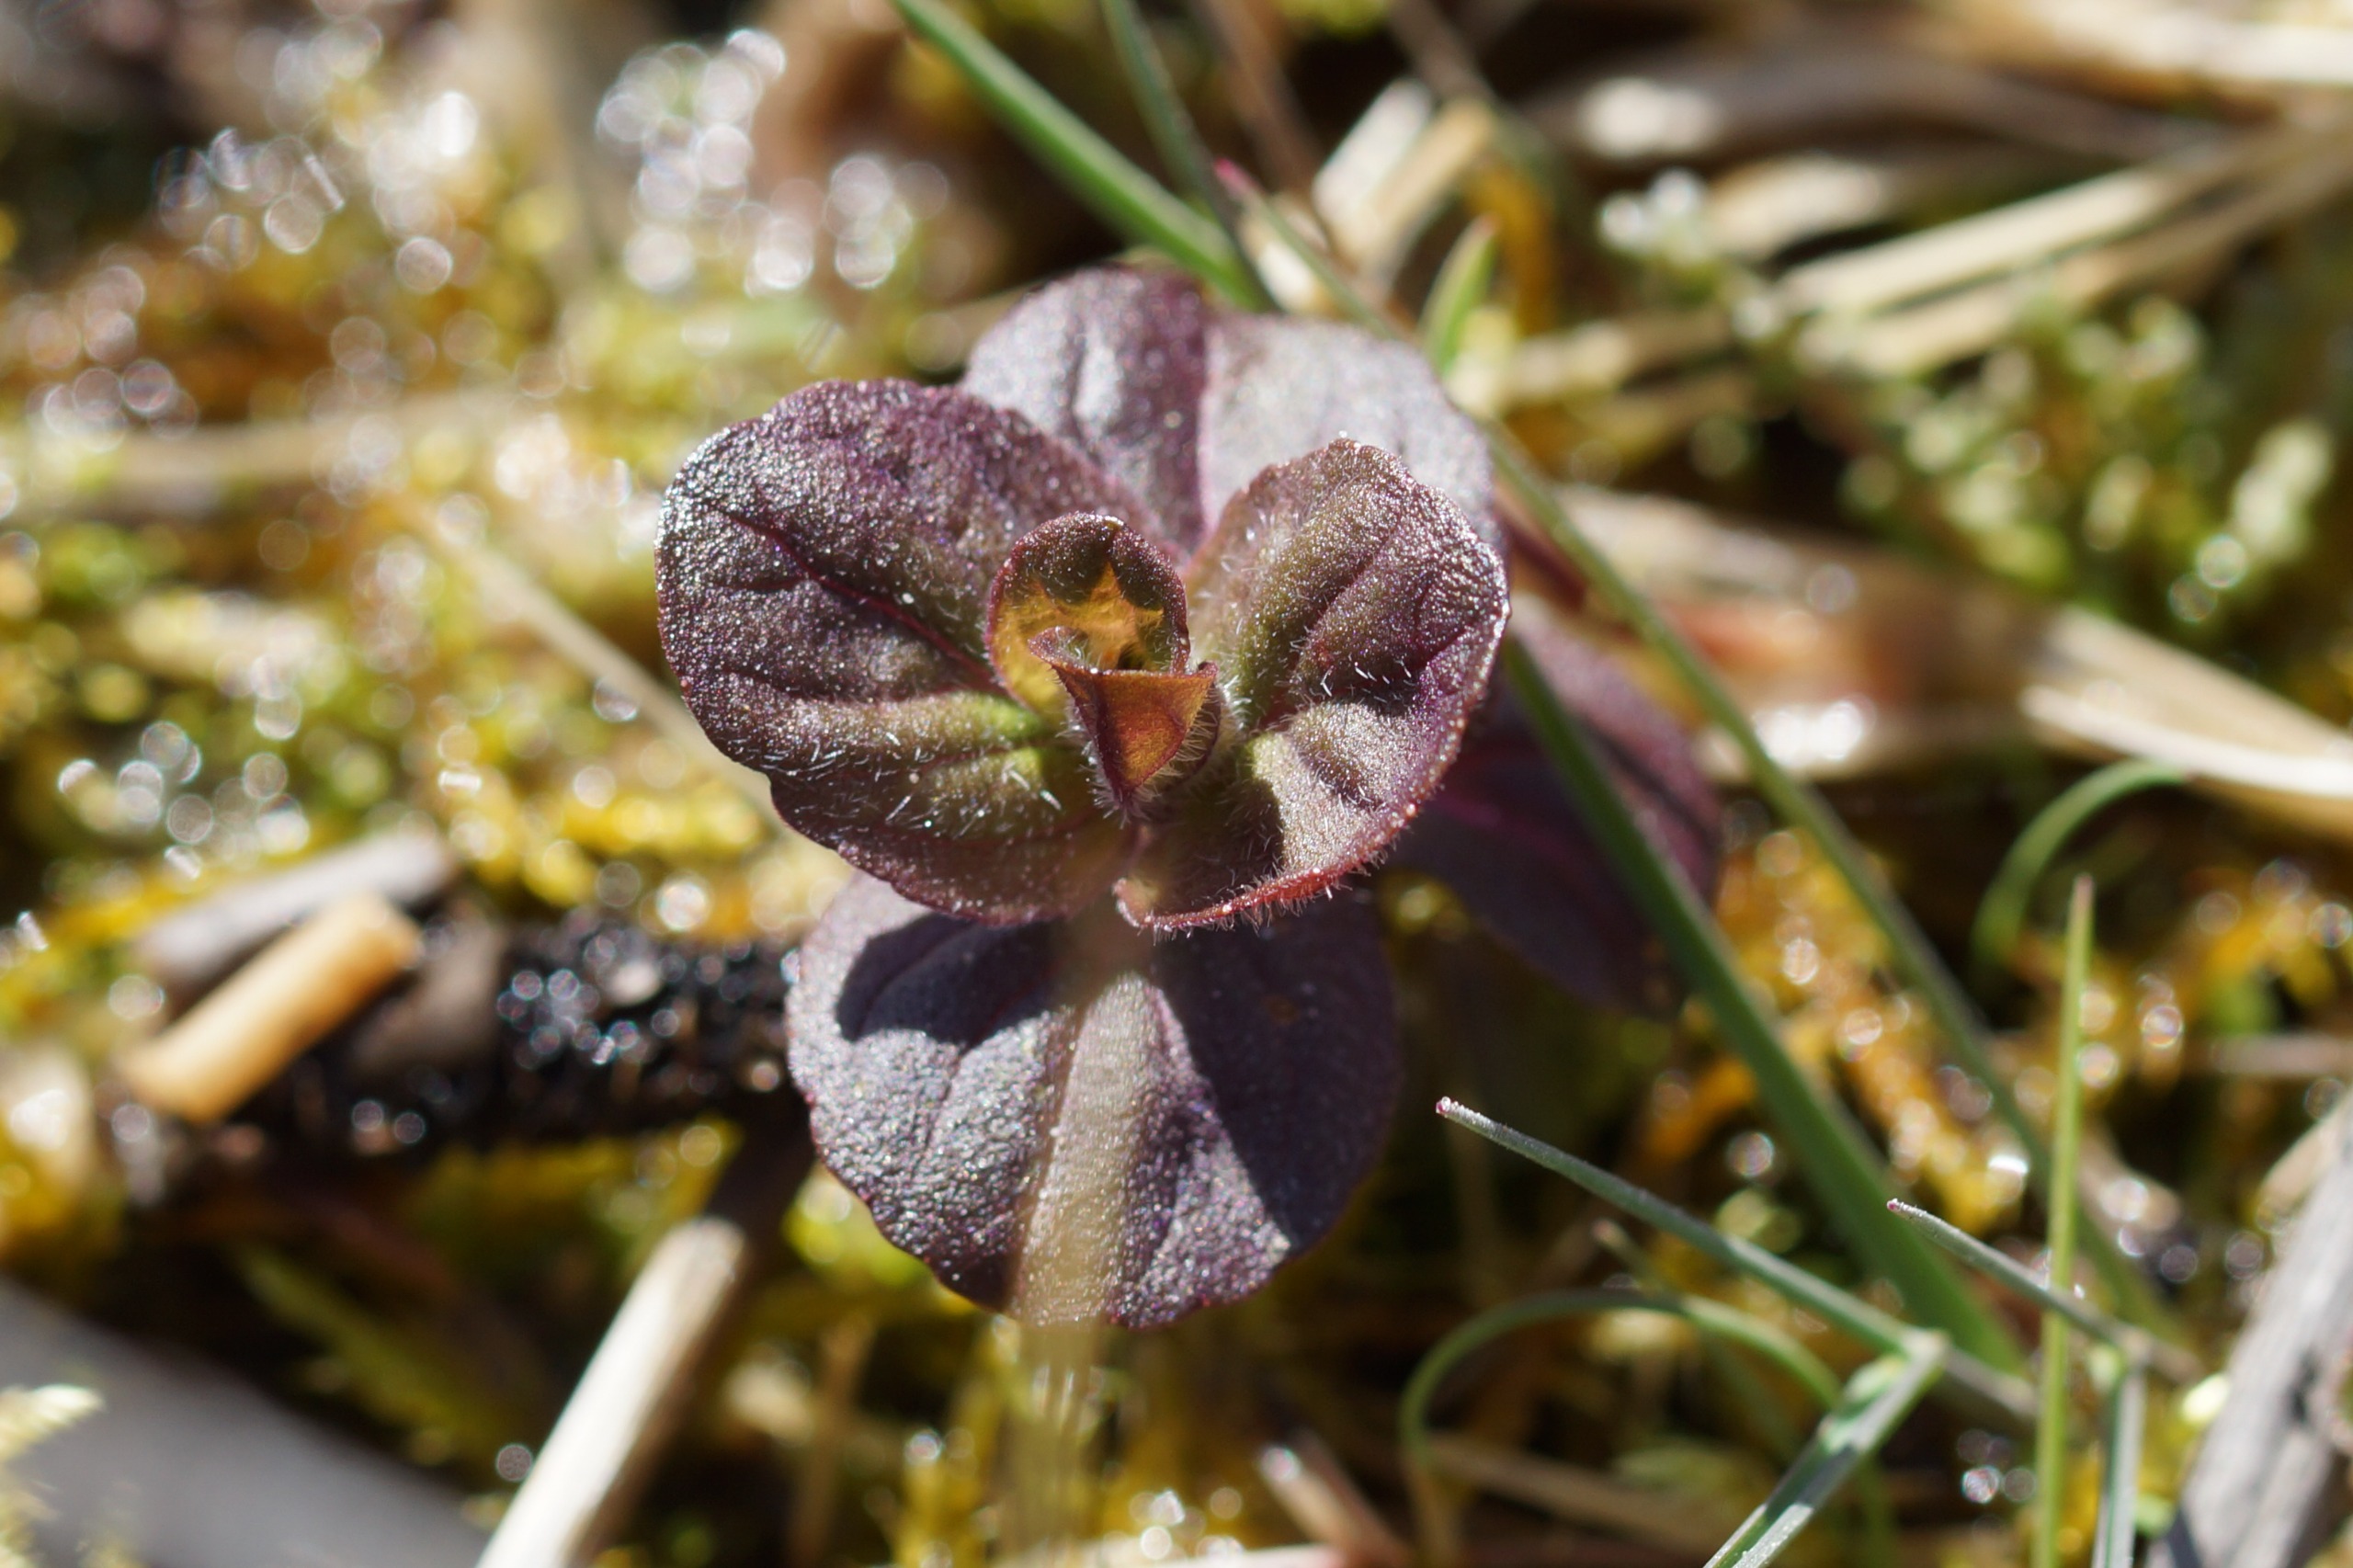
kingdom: Plantae
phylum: Tracheophyta
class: Magnoliopsida
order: Lamiales
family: Lamiaceae
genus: Mentha
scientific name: Mentha aquatica
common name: Vand-mynte
